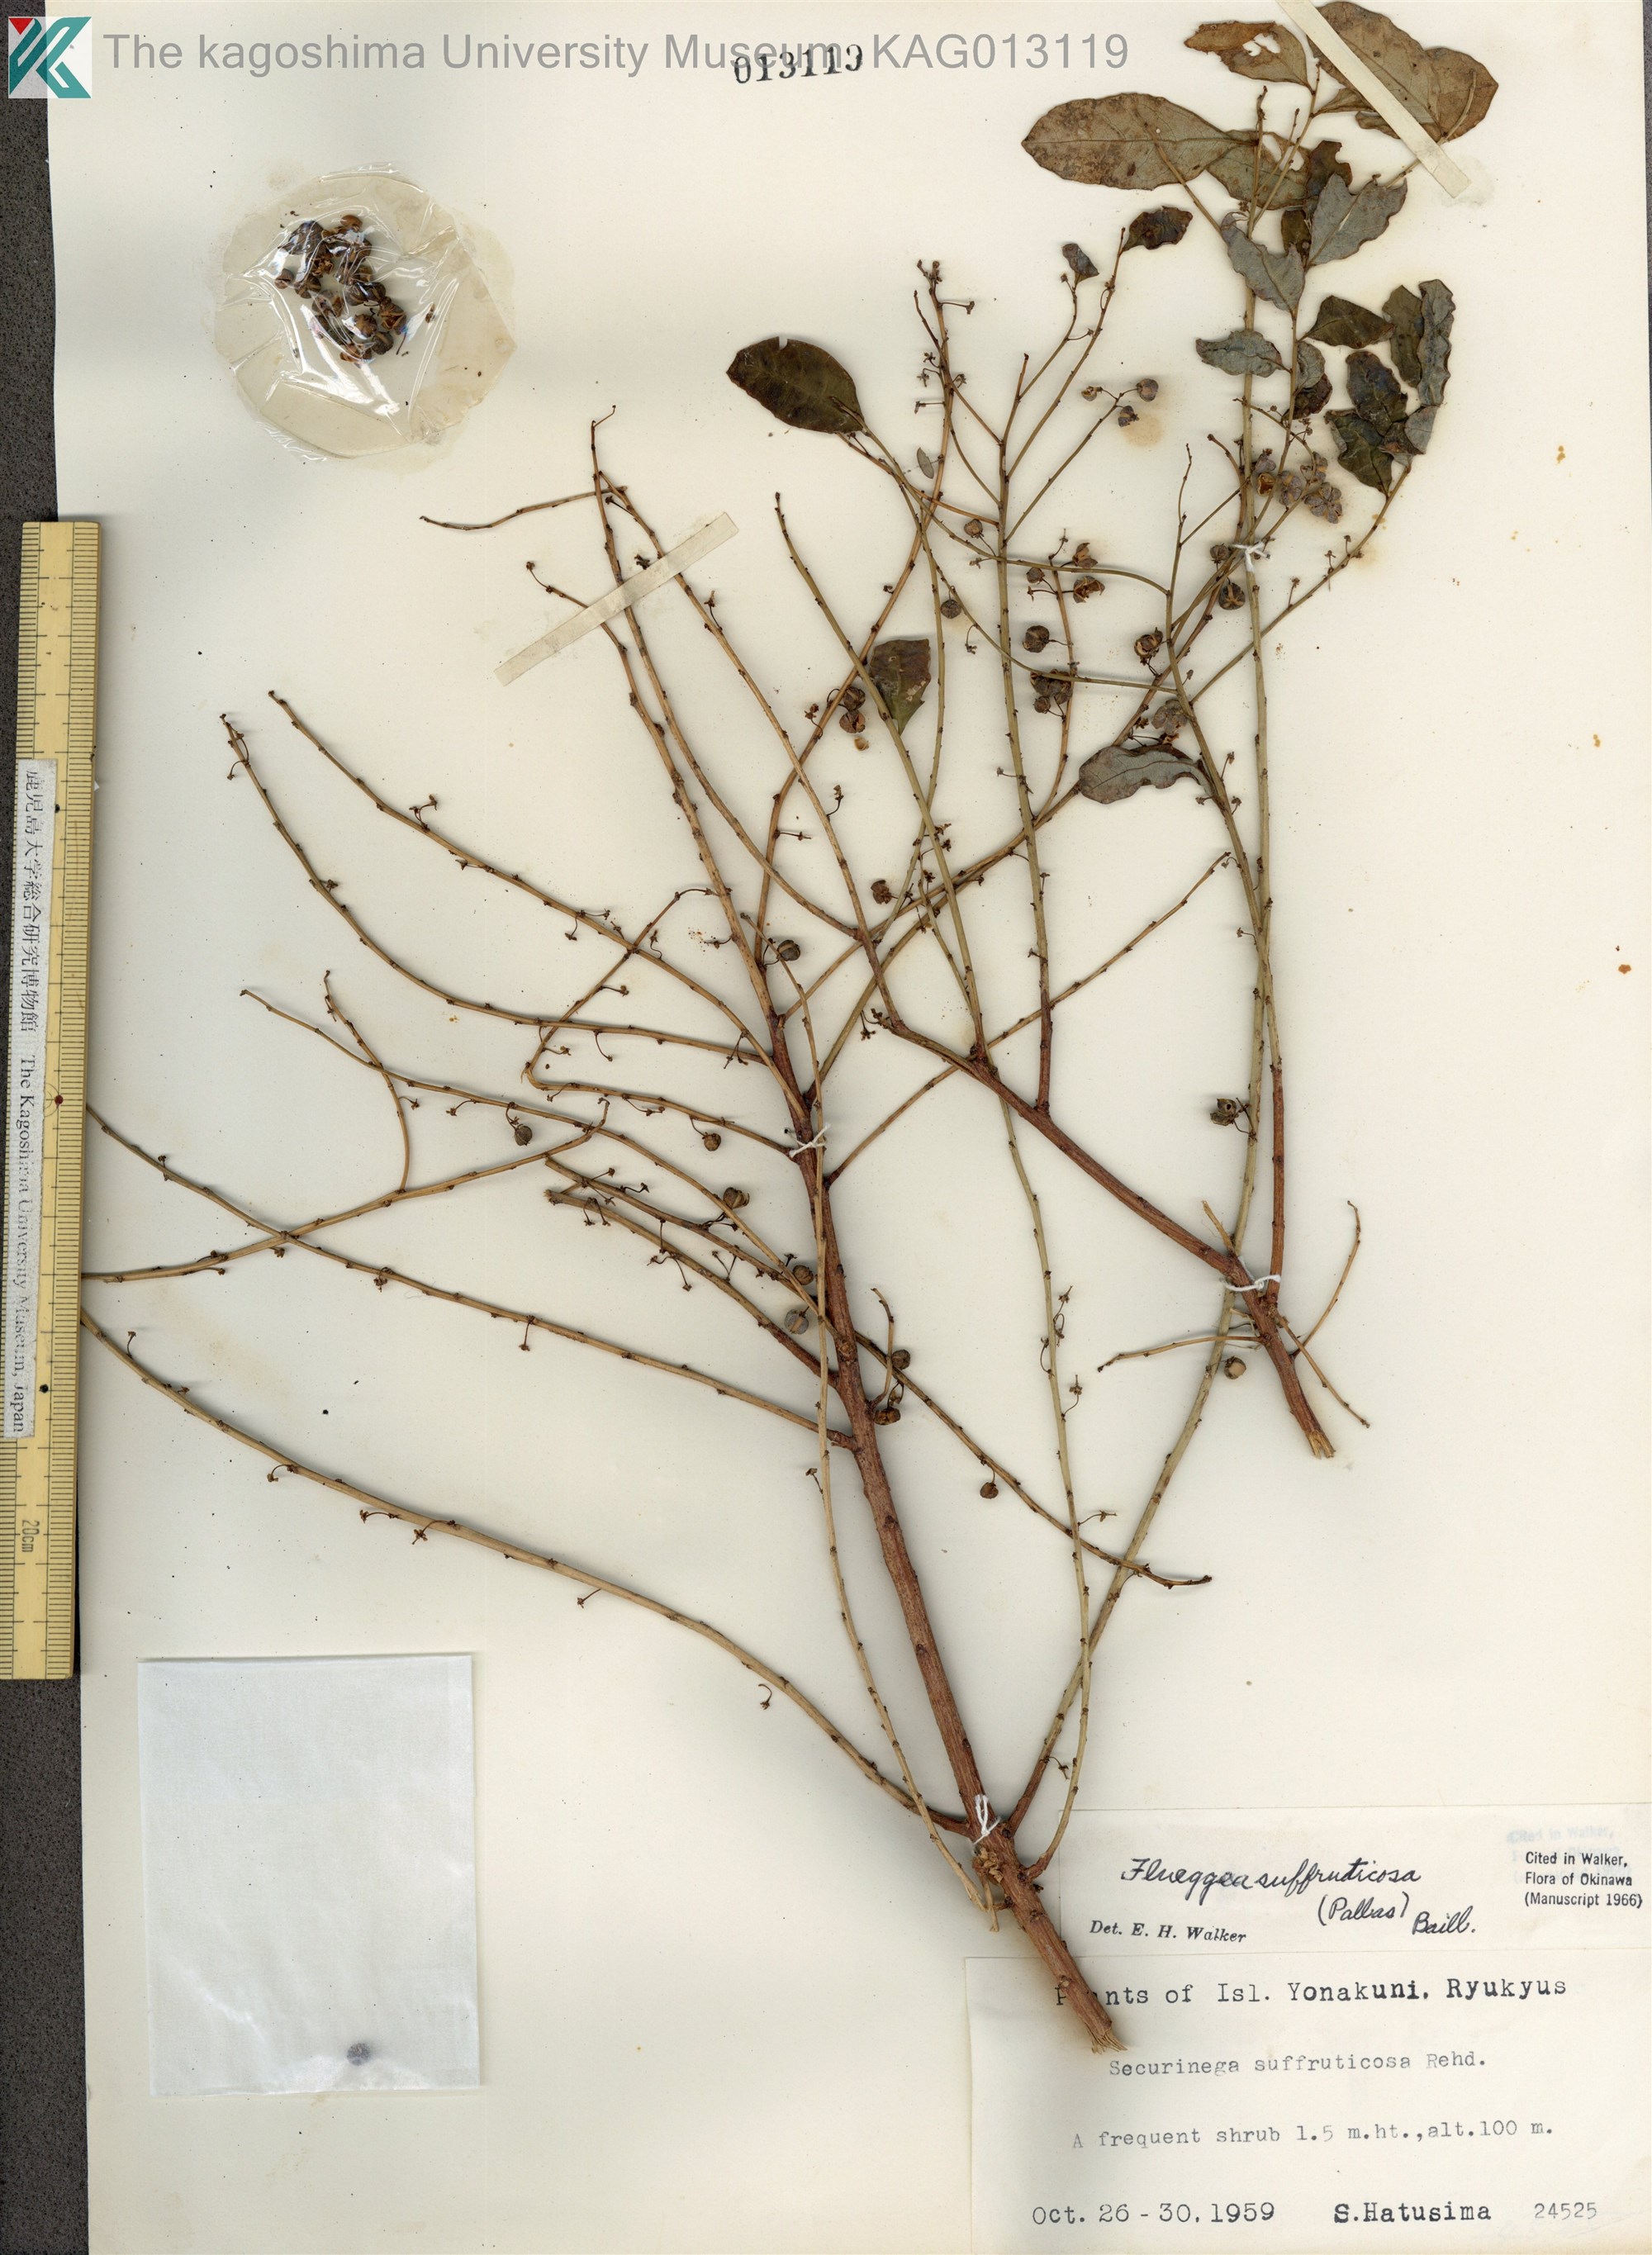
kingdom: Plantae
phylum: Tracheophyta
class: Magnoliopsida
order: Malpighiales
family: Phyllanthaceae
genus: Flueggea
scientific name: Flueggea suffruticosa
